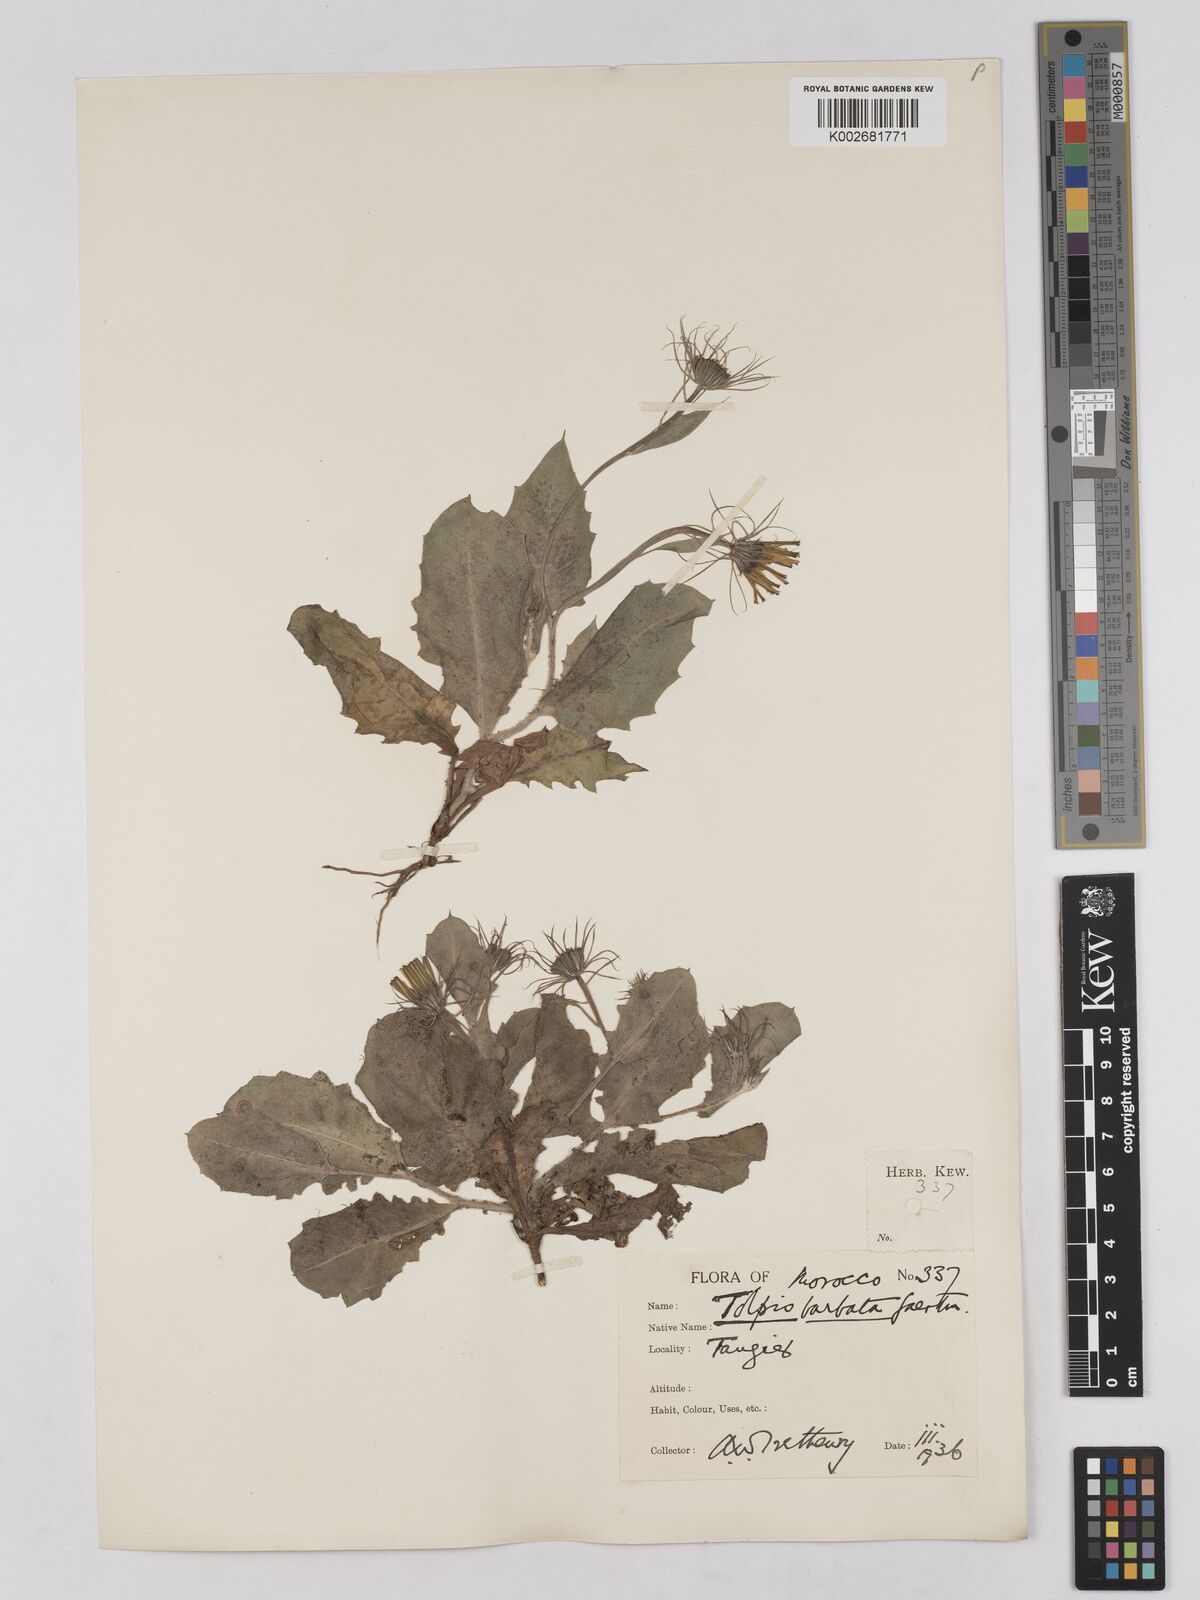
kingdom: Plantae
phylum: Tracheophyta
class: Magnoliopsida
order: Asterales
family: Asteraceae
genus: Tolpis
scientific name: Tolpis barbata
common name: Yellow hawkweed
